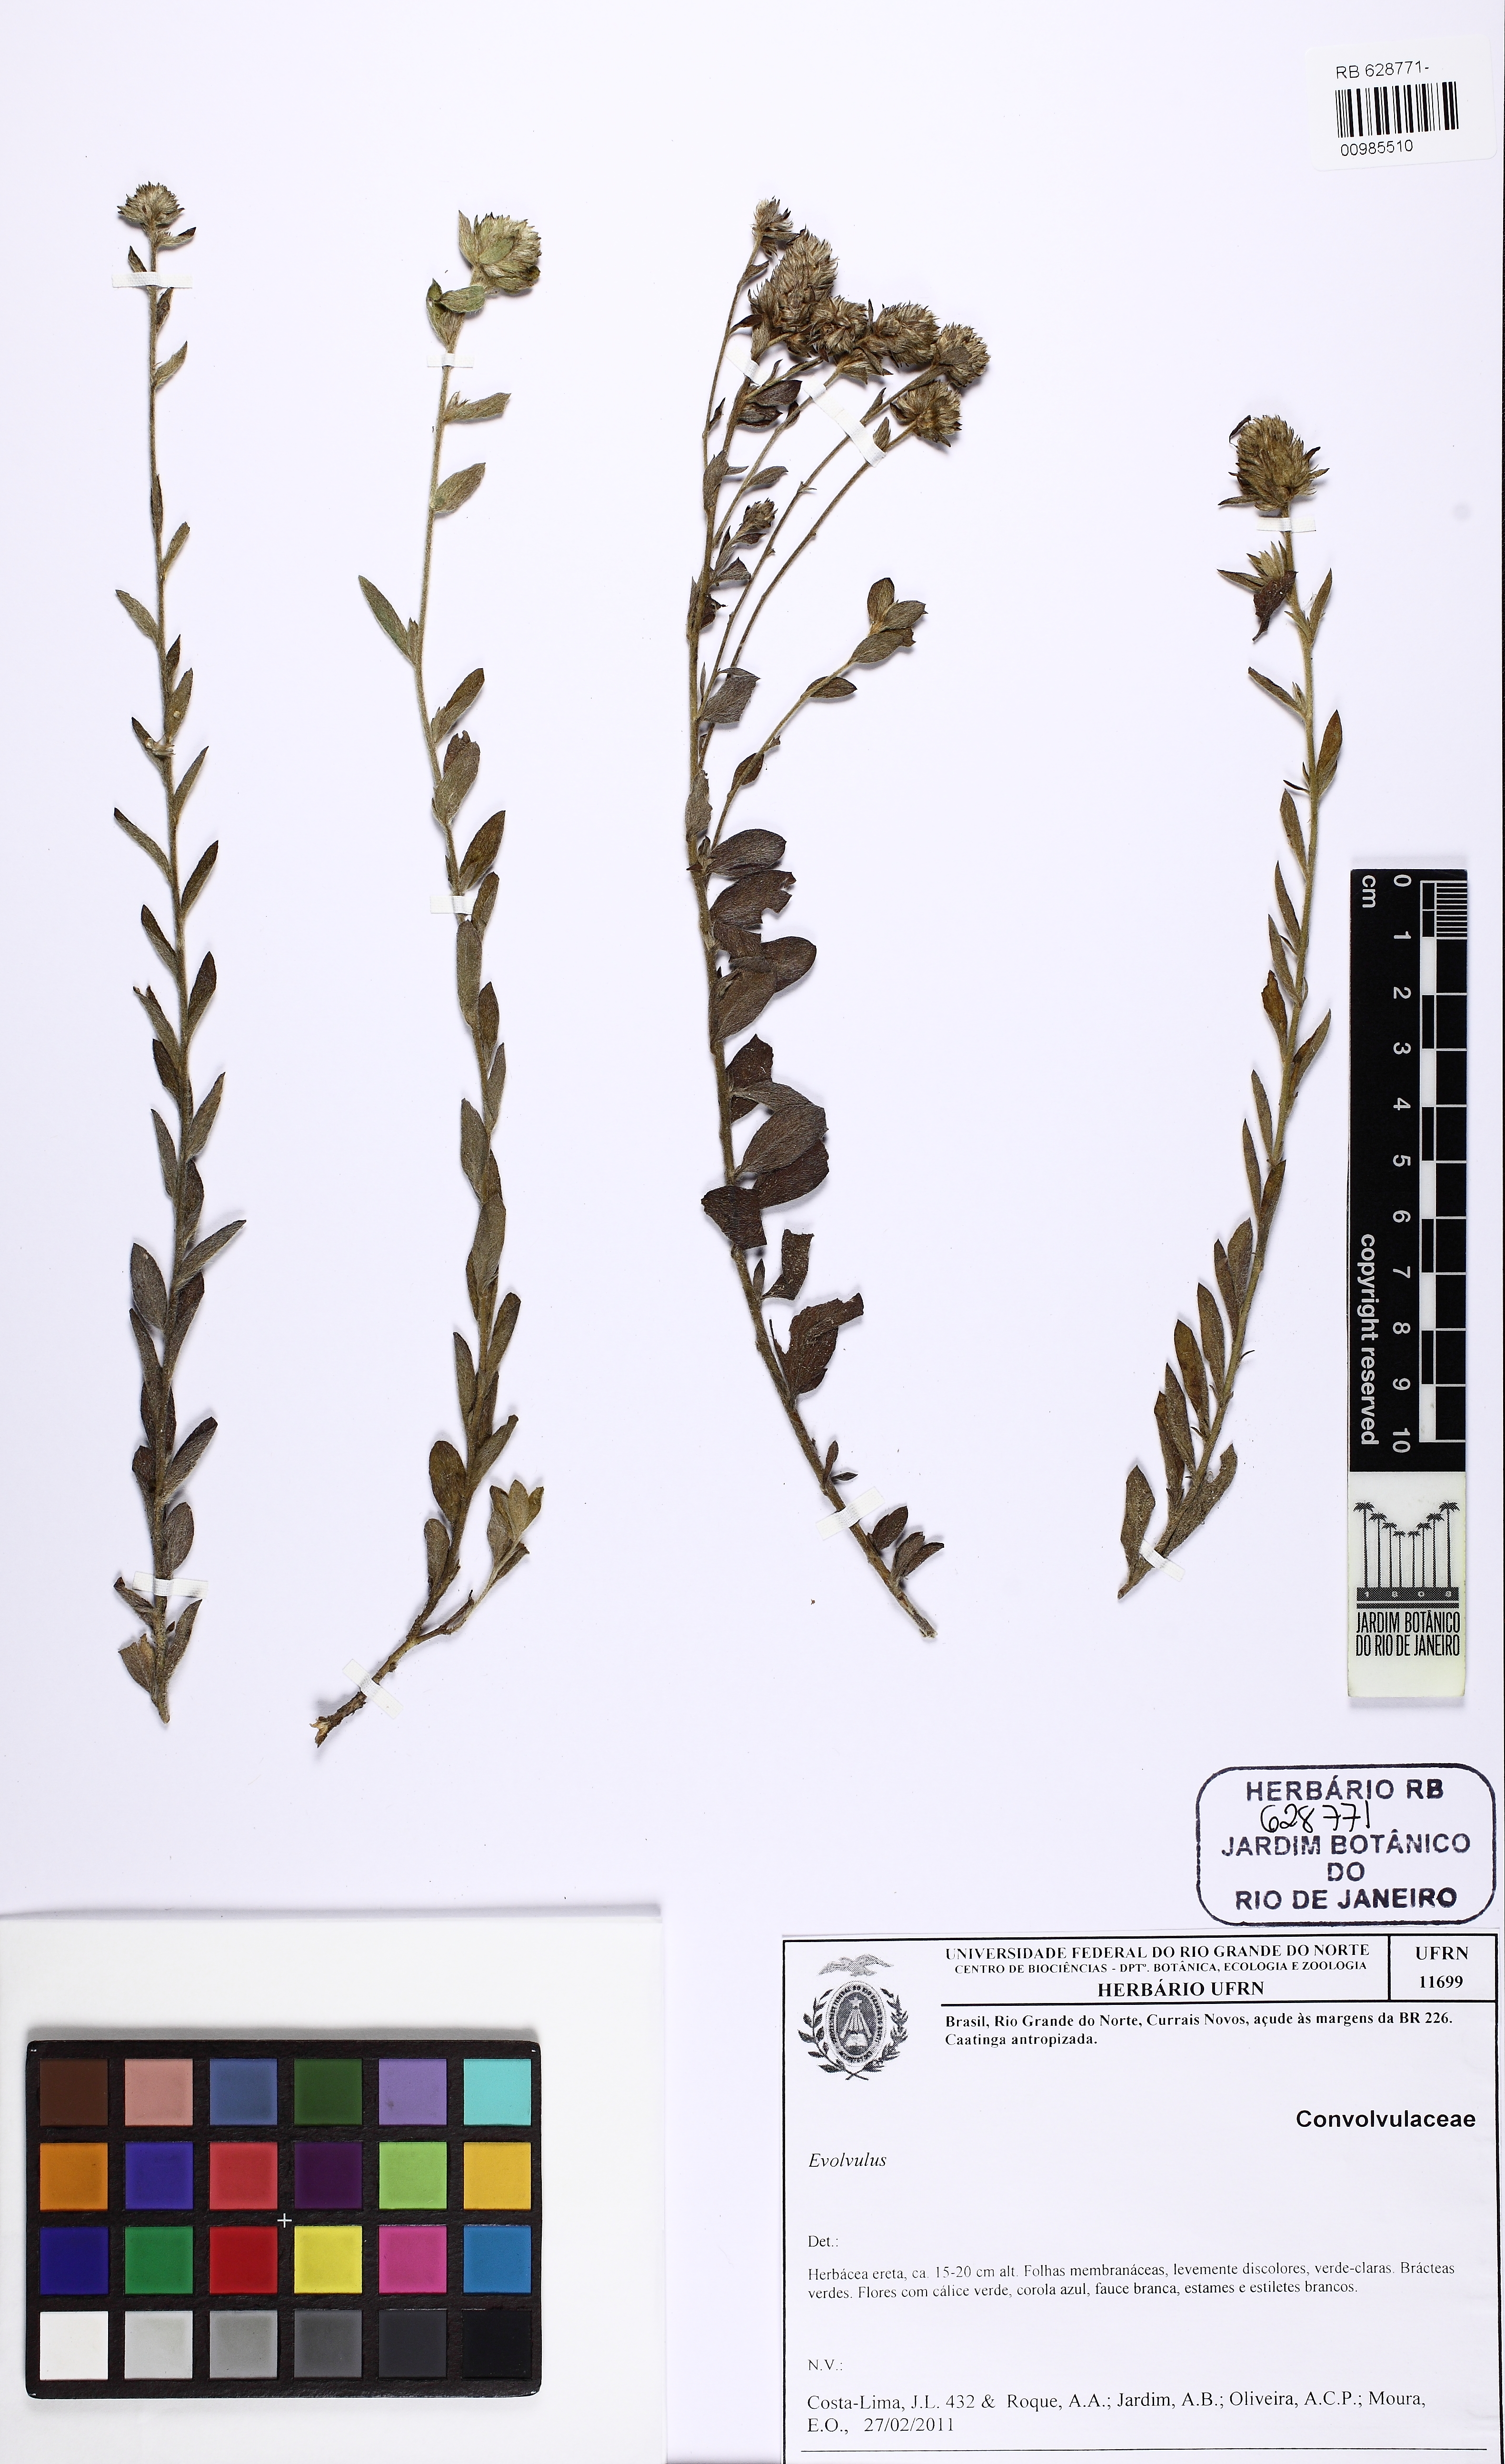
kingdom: Plantae
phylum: Tracheophyta
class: Magnoliopsida
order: Solanales
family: Convolvulaceae
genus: Evolvulus
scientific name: Evolvulus
